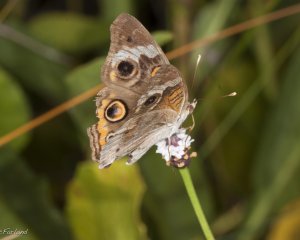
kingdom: Animalia
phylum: Arthropoda
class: Insecta
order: Lepidoptera
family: Nymphalidae
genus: Junonia
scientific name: Junonia coenia
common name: Common Buckeye
